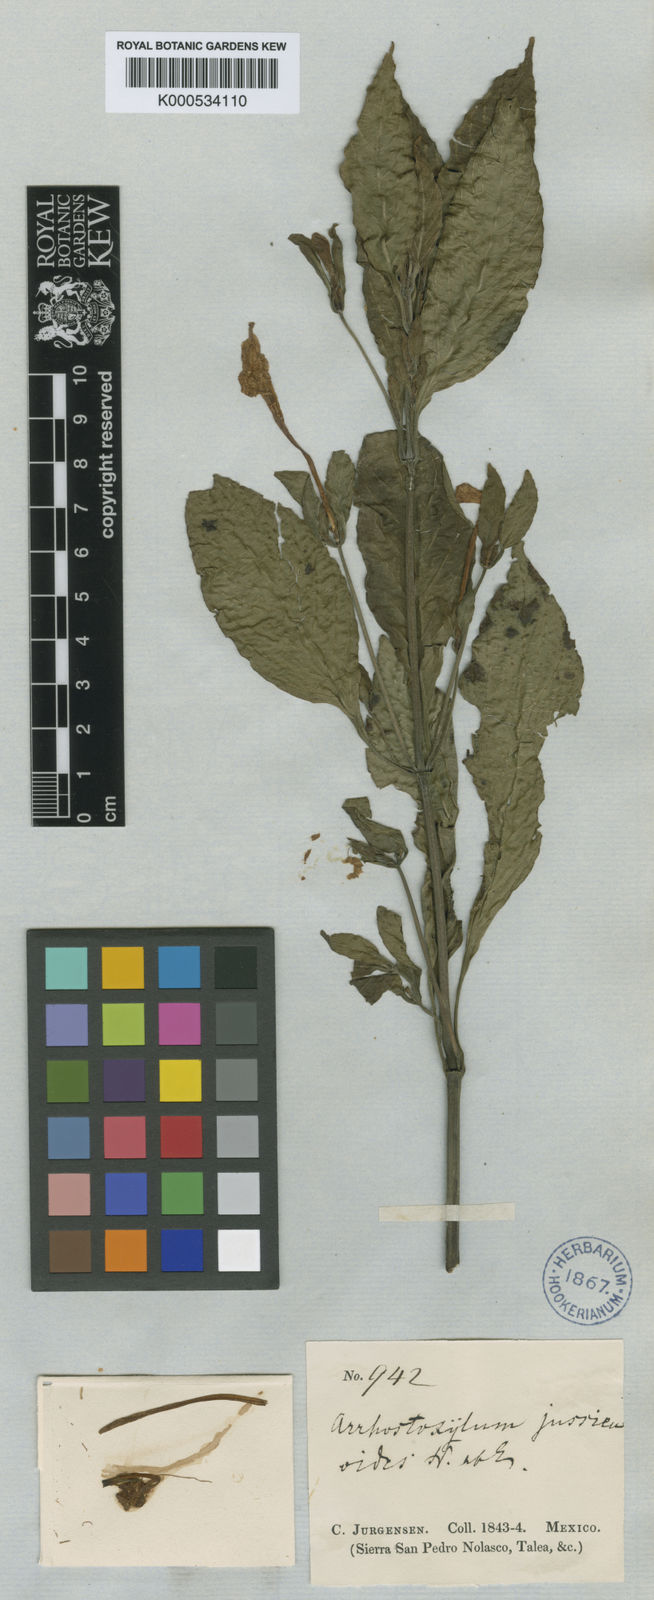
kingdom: Plantae
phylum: Tracheophyta
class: Magnoliopsida
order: Lamiales
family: Acanthaceae
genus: Ruellia
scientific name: Ruellia jussieuoides
